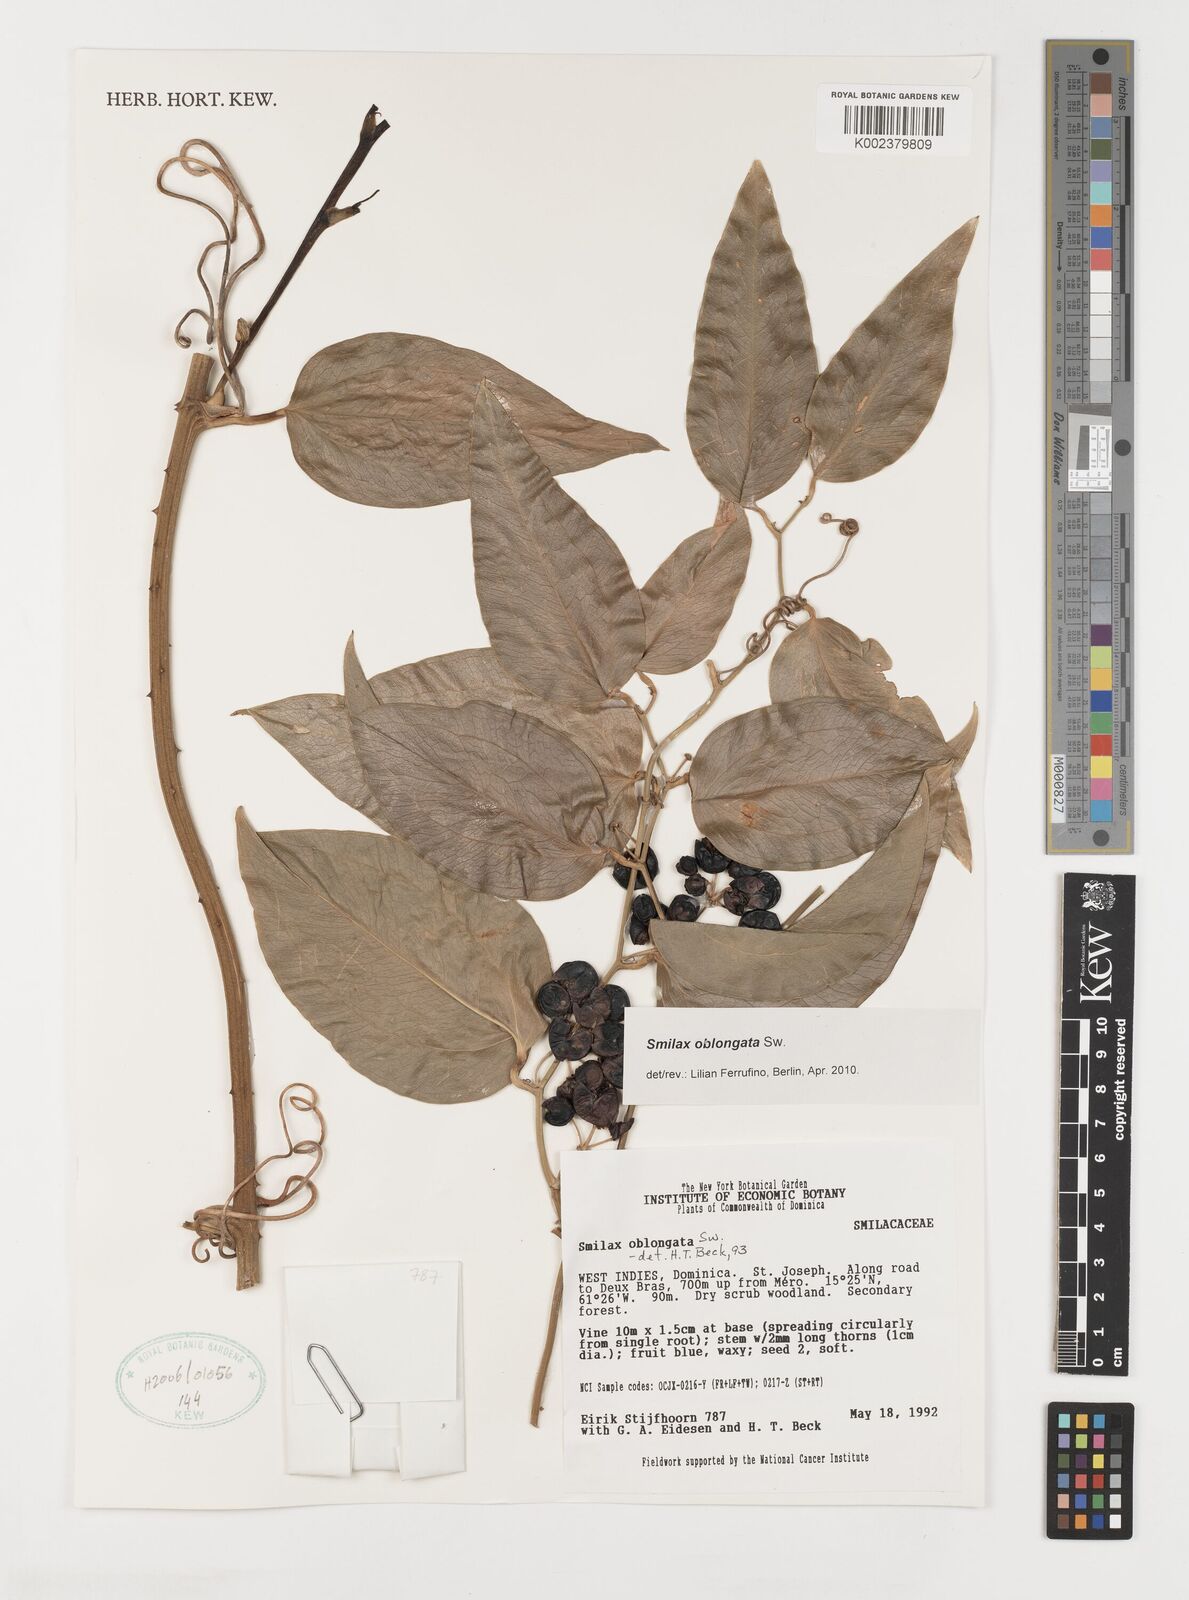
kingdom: Plantae
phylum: Tracheophyta
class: Liliopsida
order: Liliales
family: Smilacaceae
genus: Smilax
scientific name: Smilax oblongata
